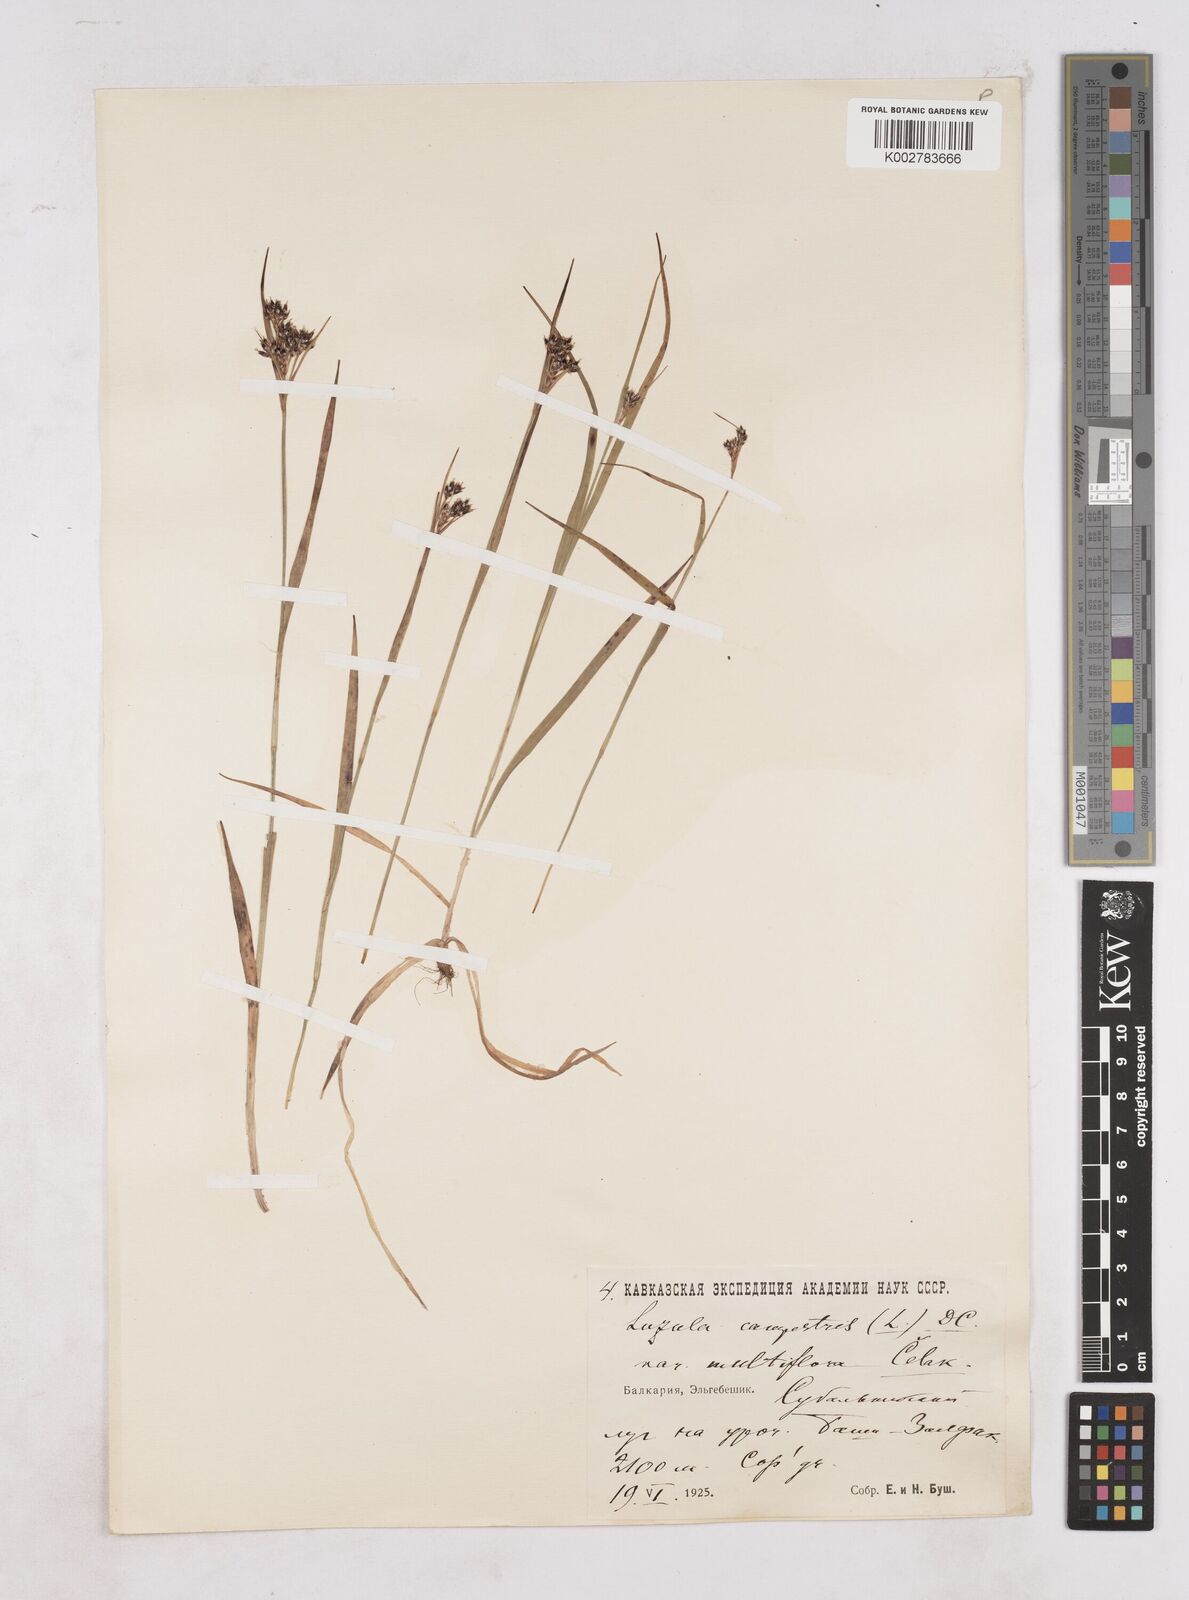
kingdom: Plantae
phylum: Tracheophyta
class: Liliopsida
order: Poales
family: Juncaceae
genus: Luzula
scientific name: Luzula campestris
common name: Field wood-rush
